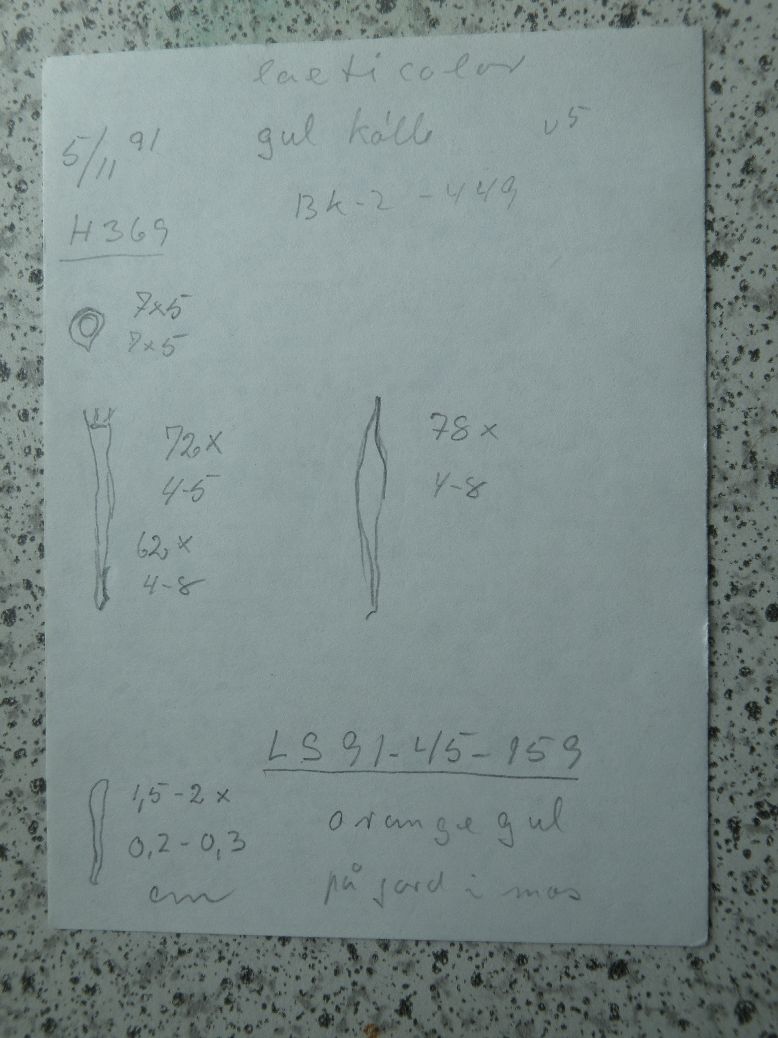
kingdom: Fungi
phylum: Basidiomycota
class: Agaricomycetes
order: Agaricales
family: Clavariaceae
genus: Clavulinopsis
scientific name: Clavulinopsis laeticolor
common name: flamme-køllesvamp
